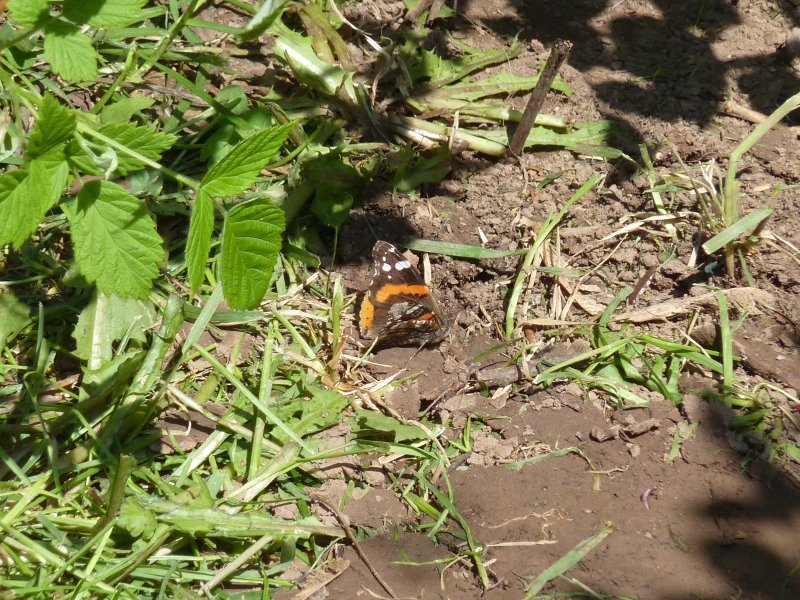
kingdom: Animalia
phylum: Arthropoda
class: Insecta
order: Lepidoptera
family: Nymphalidae
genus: Vanessa
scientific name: Vanessa atalanta
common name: Red Admiral
